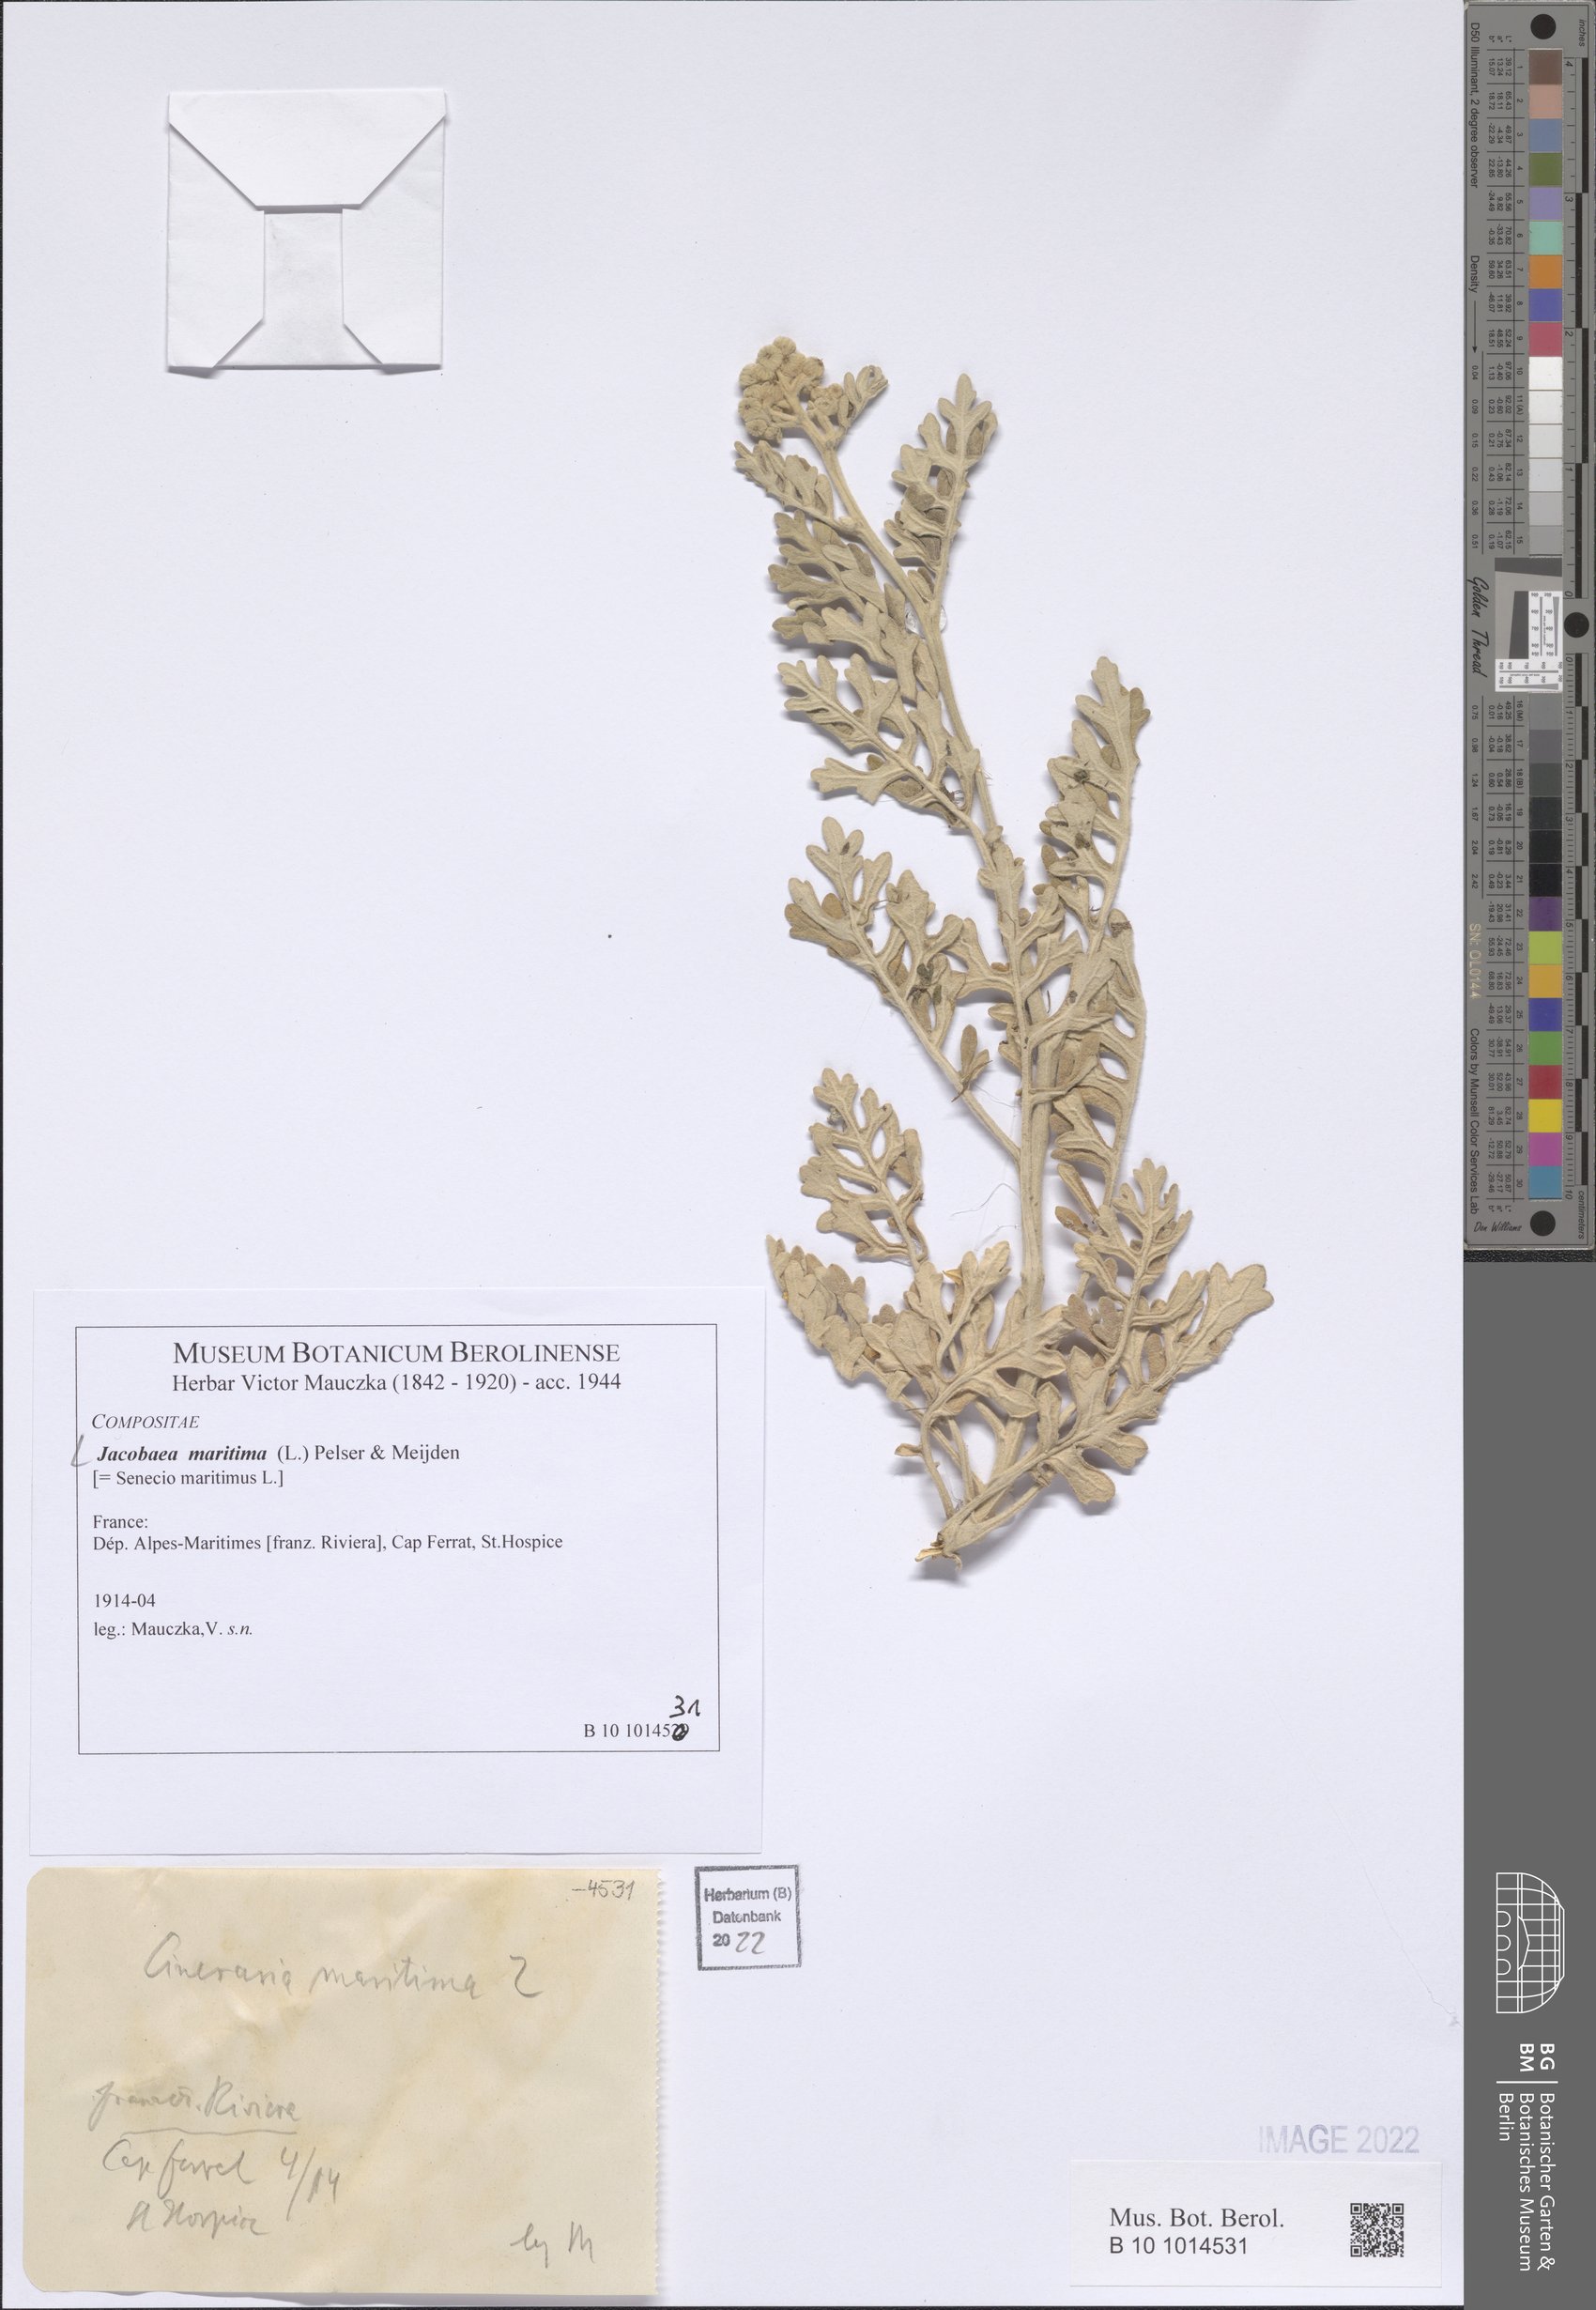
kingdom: Plantae
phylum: Tracheophyta
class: Magnoliopsida
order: Asterales
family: Asteraceae
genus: Jacobaea
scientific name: Jacobaea maritima
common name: Silver ragwort
